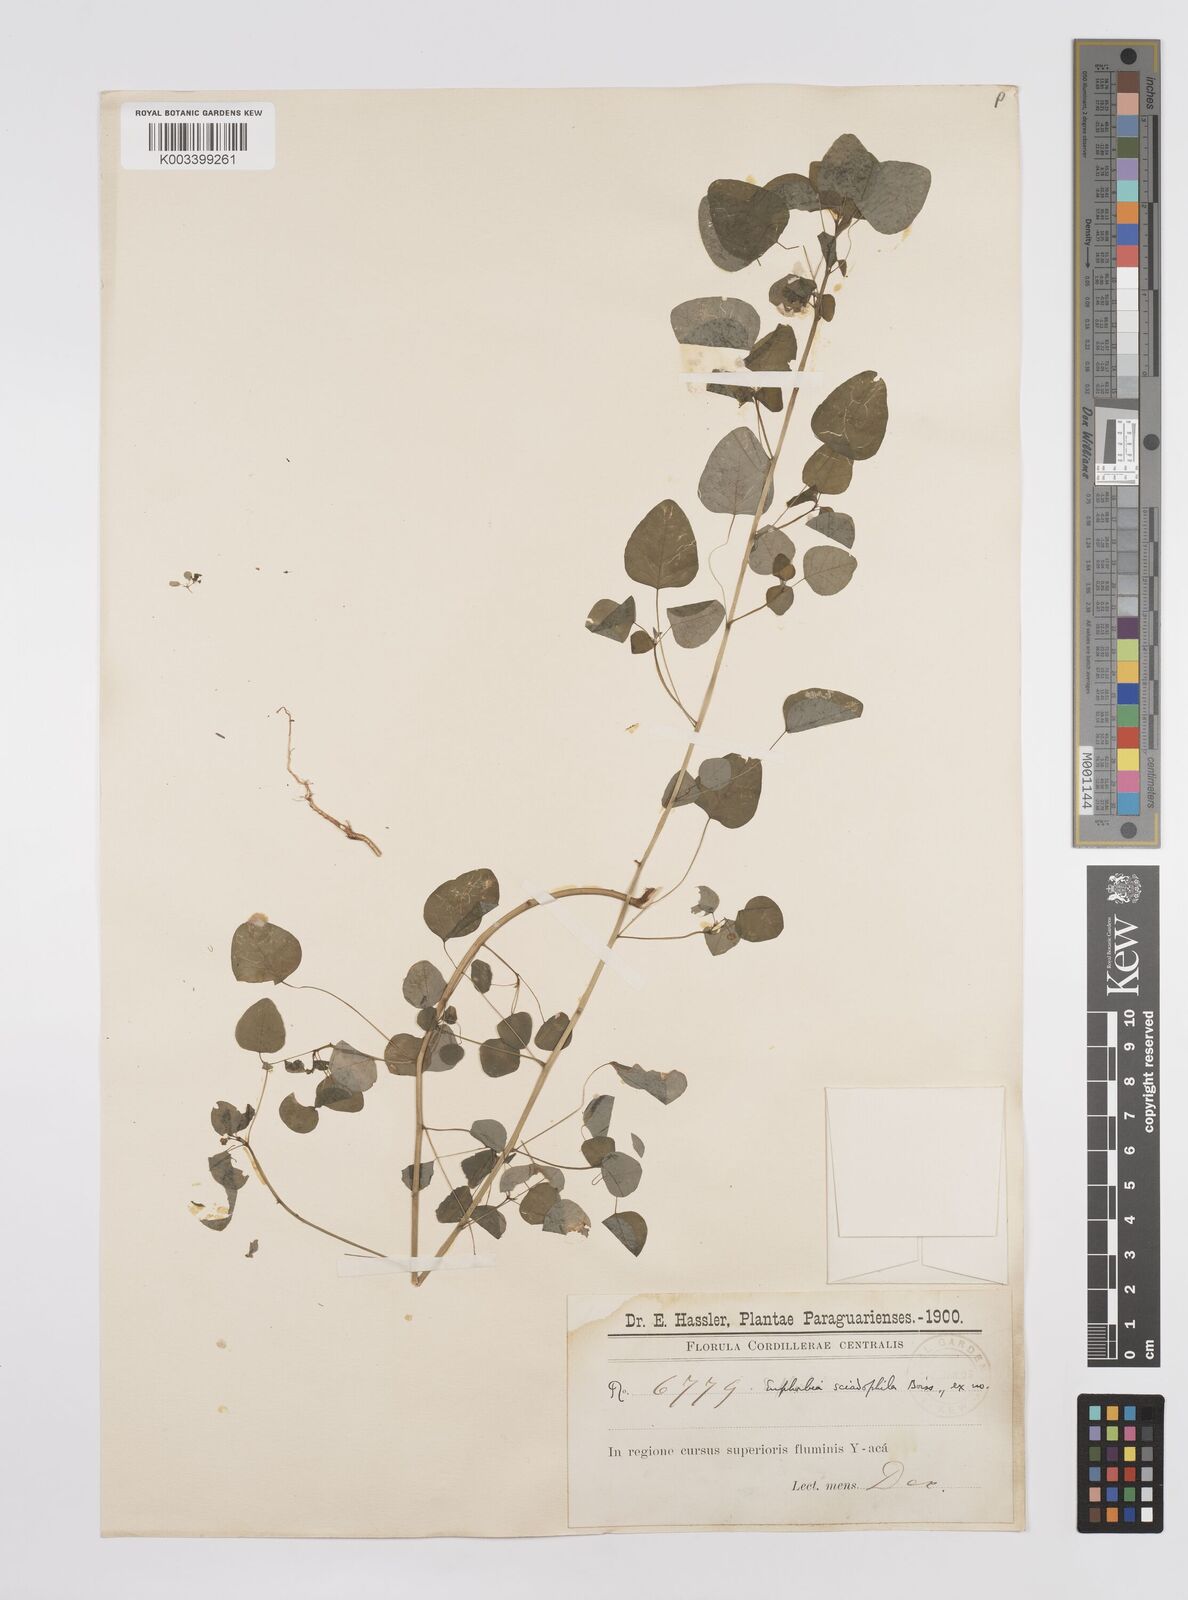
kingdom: Plantae
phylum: Tracheophyta
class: Magnoliopsida
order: Malpighiales
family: Euphorbiaceae
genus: Euphorbia
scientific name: Euphorbia sciadophila
